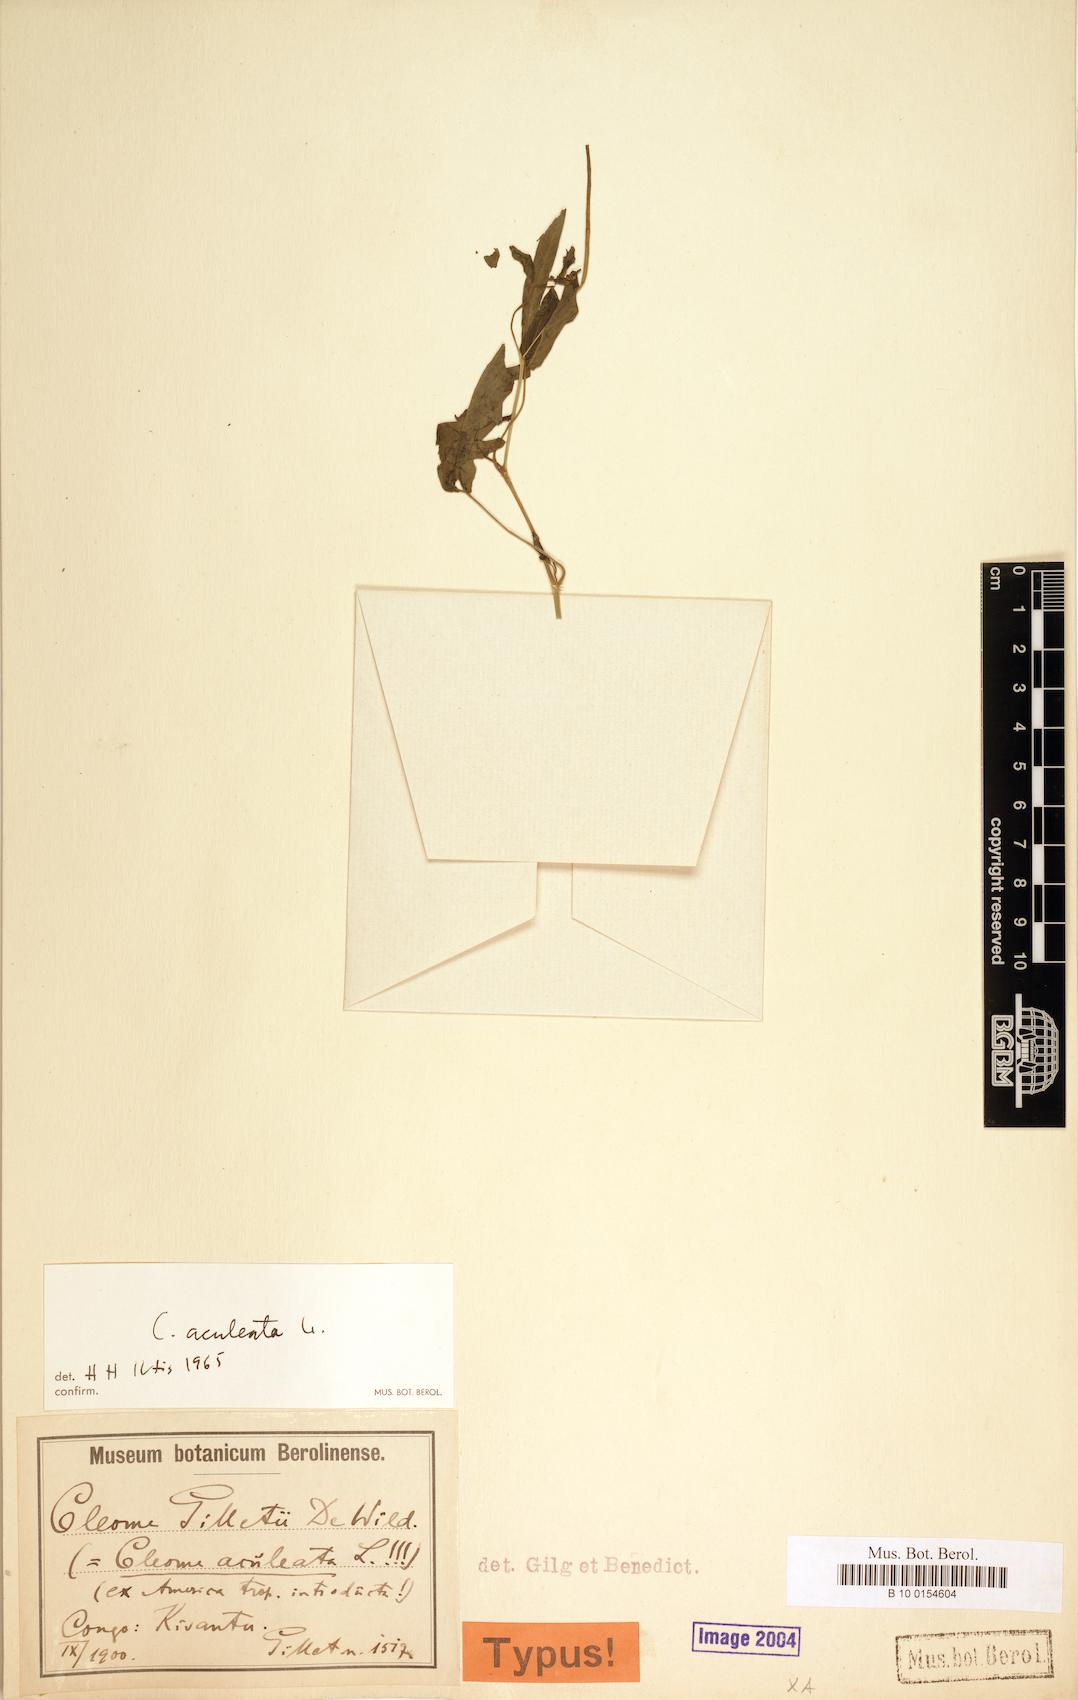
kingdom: Plantae
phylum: Tracheophyta
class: Magnoliopsida
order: Brassicales
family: Cleomaceae
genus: Tarenaya
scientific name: Tarenaya aculeata
